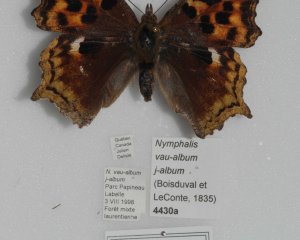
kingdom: Animalia
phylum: Arthropoda
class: Insecta
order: Lepidoptera
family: Nymphalidae
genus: Polygonia
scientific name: Polygonia vaualbum
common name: Compton Tortoiseshell
